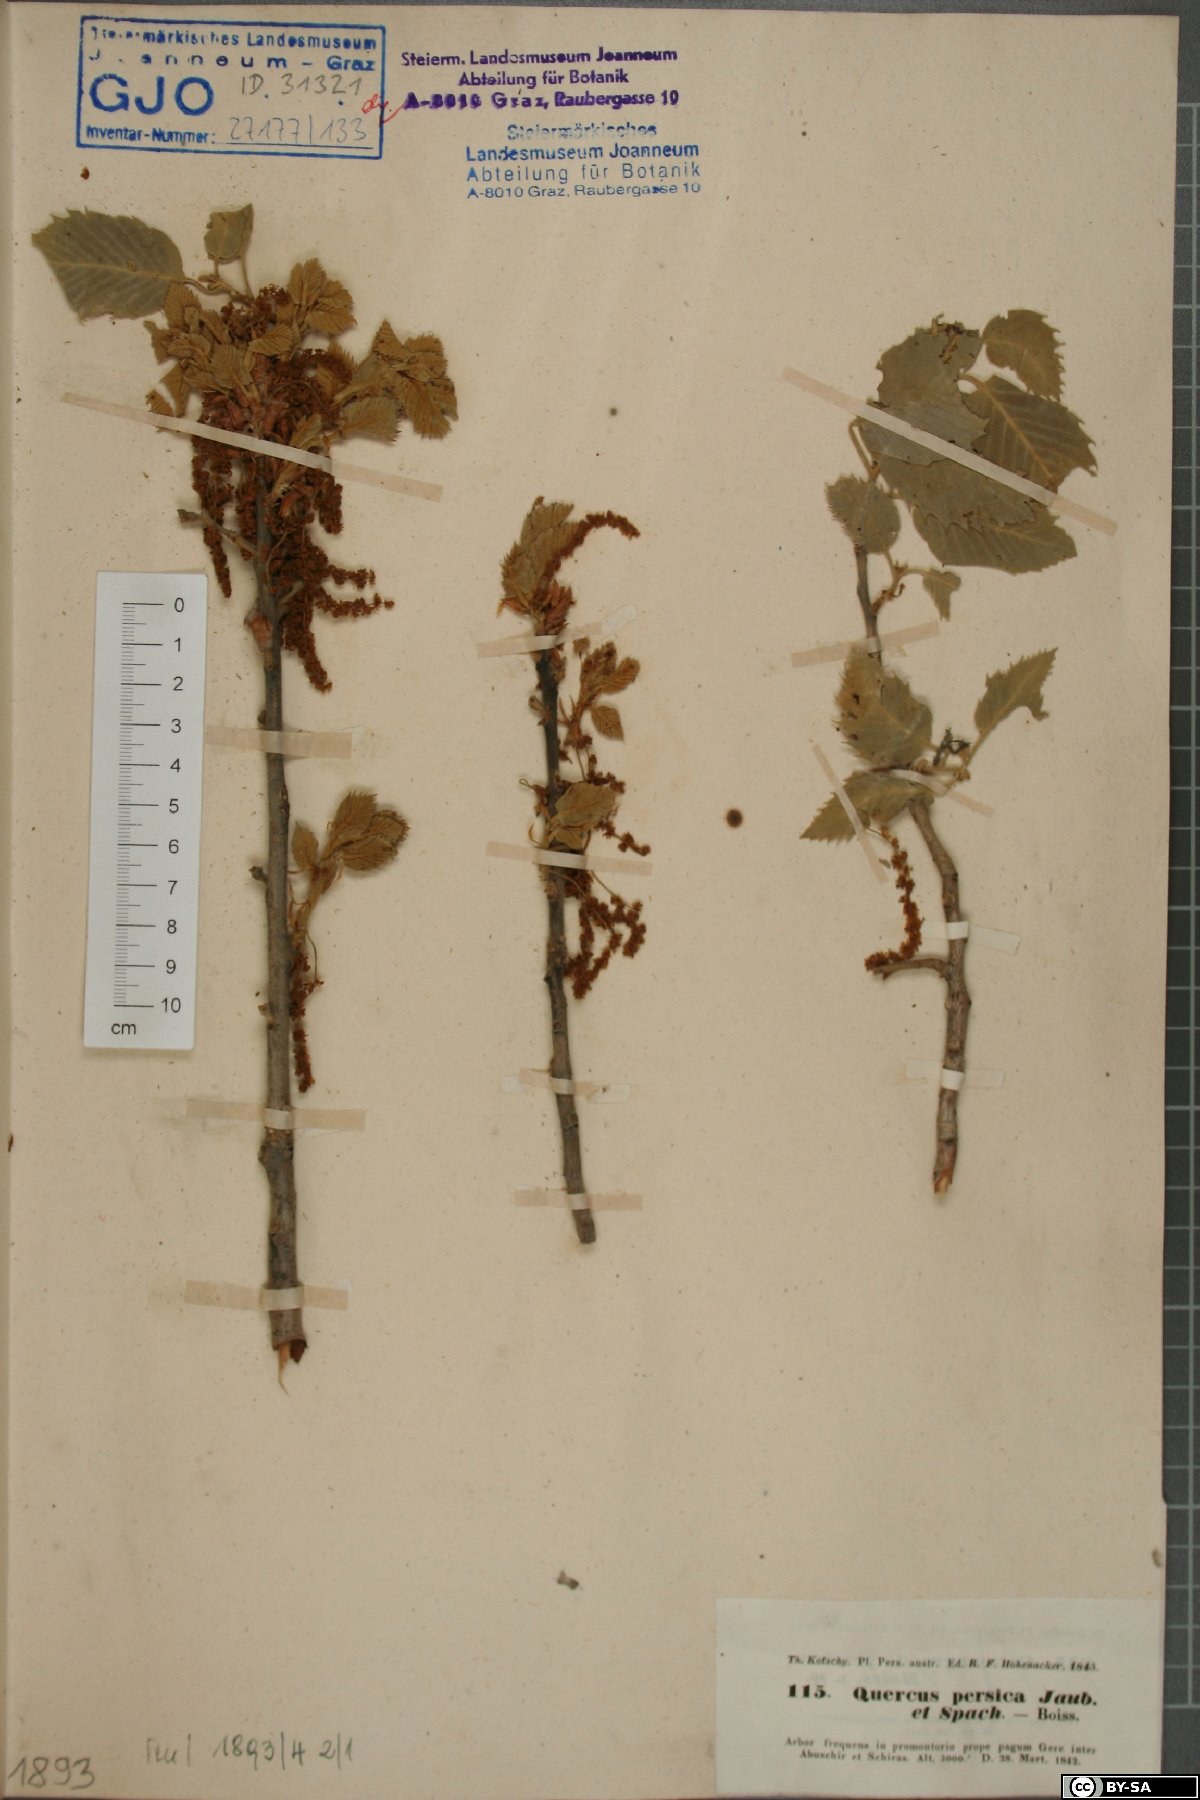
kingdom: Plantae
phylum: Tracheophyta
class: Magnoliopsida
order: Fagales
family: Fagaceae
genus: Quercus
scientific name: Quercus persica
